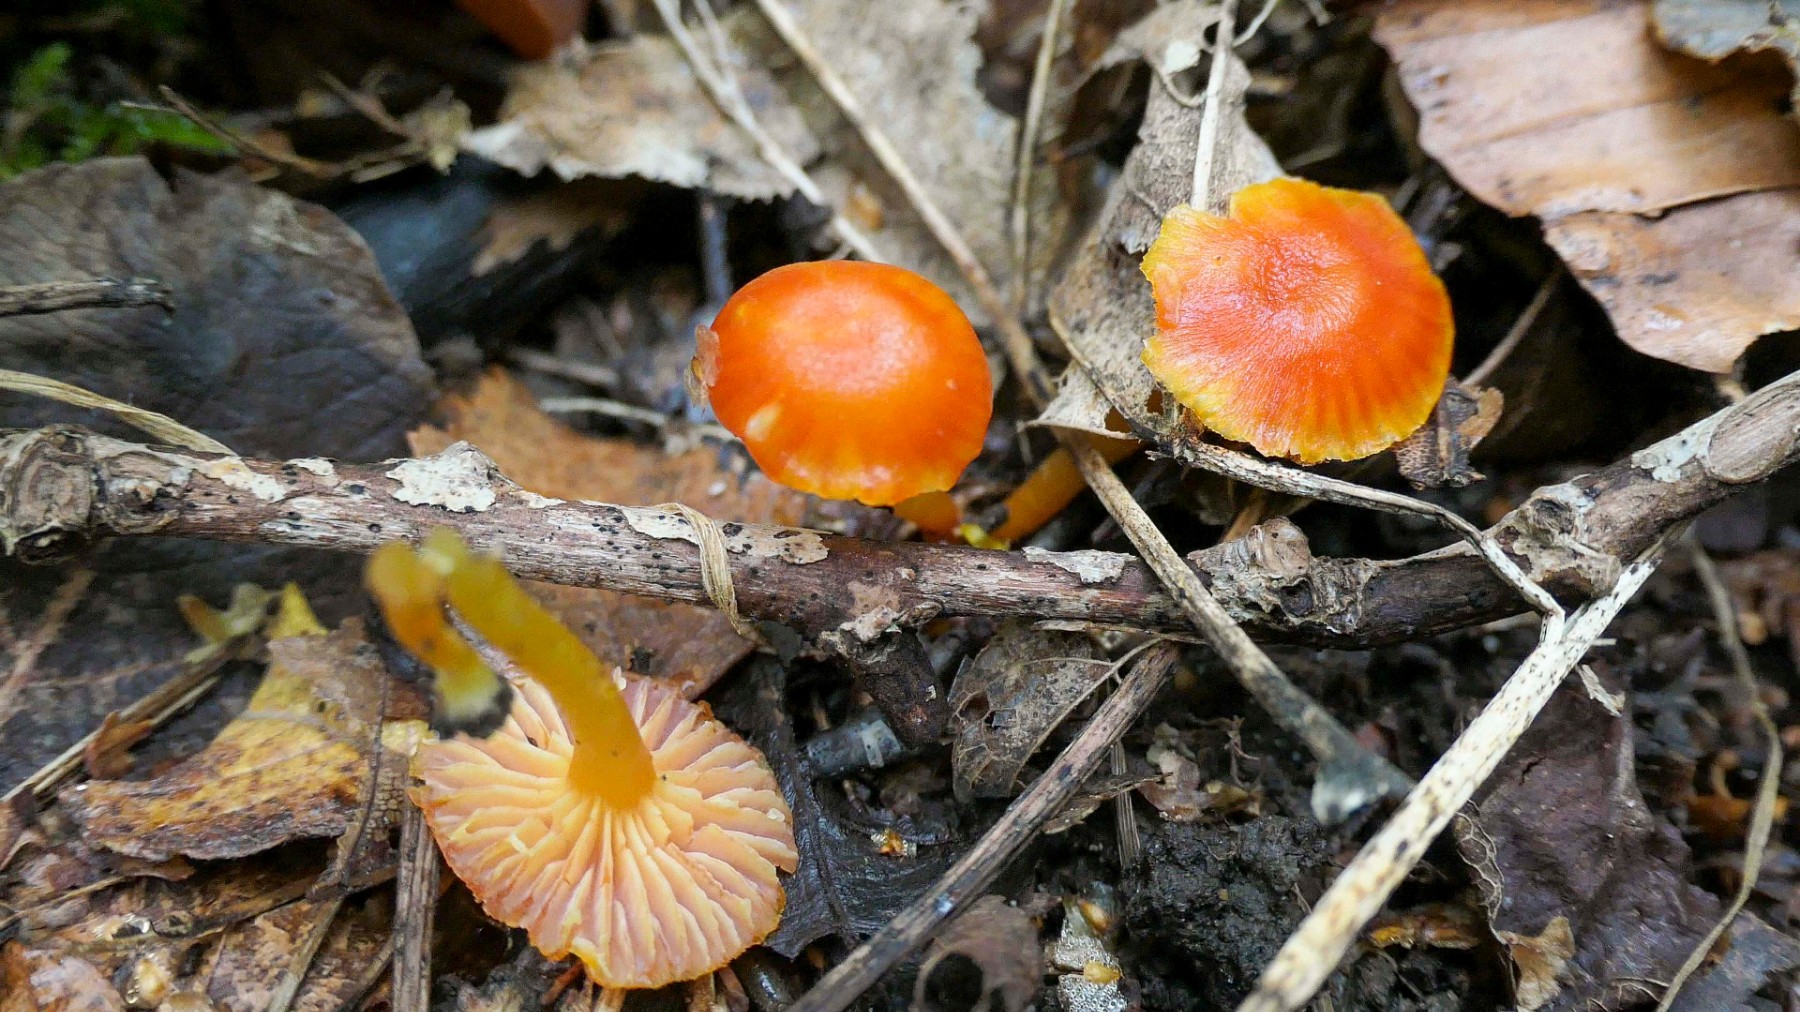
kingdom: Fungi
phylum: Basidiomycota
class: Agaricomycetes
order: Agaricales
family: Hygrophoraceae
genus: Hygrocybe
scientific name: Hygrocybe insipida
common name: liden vokshat
